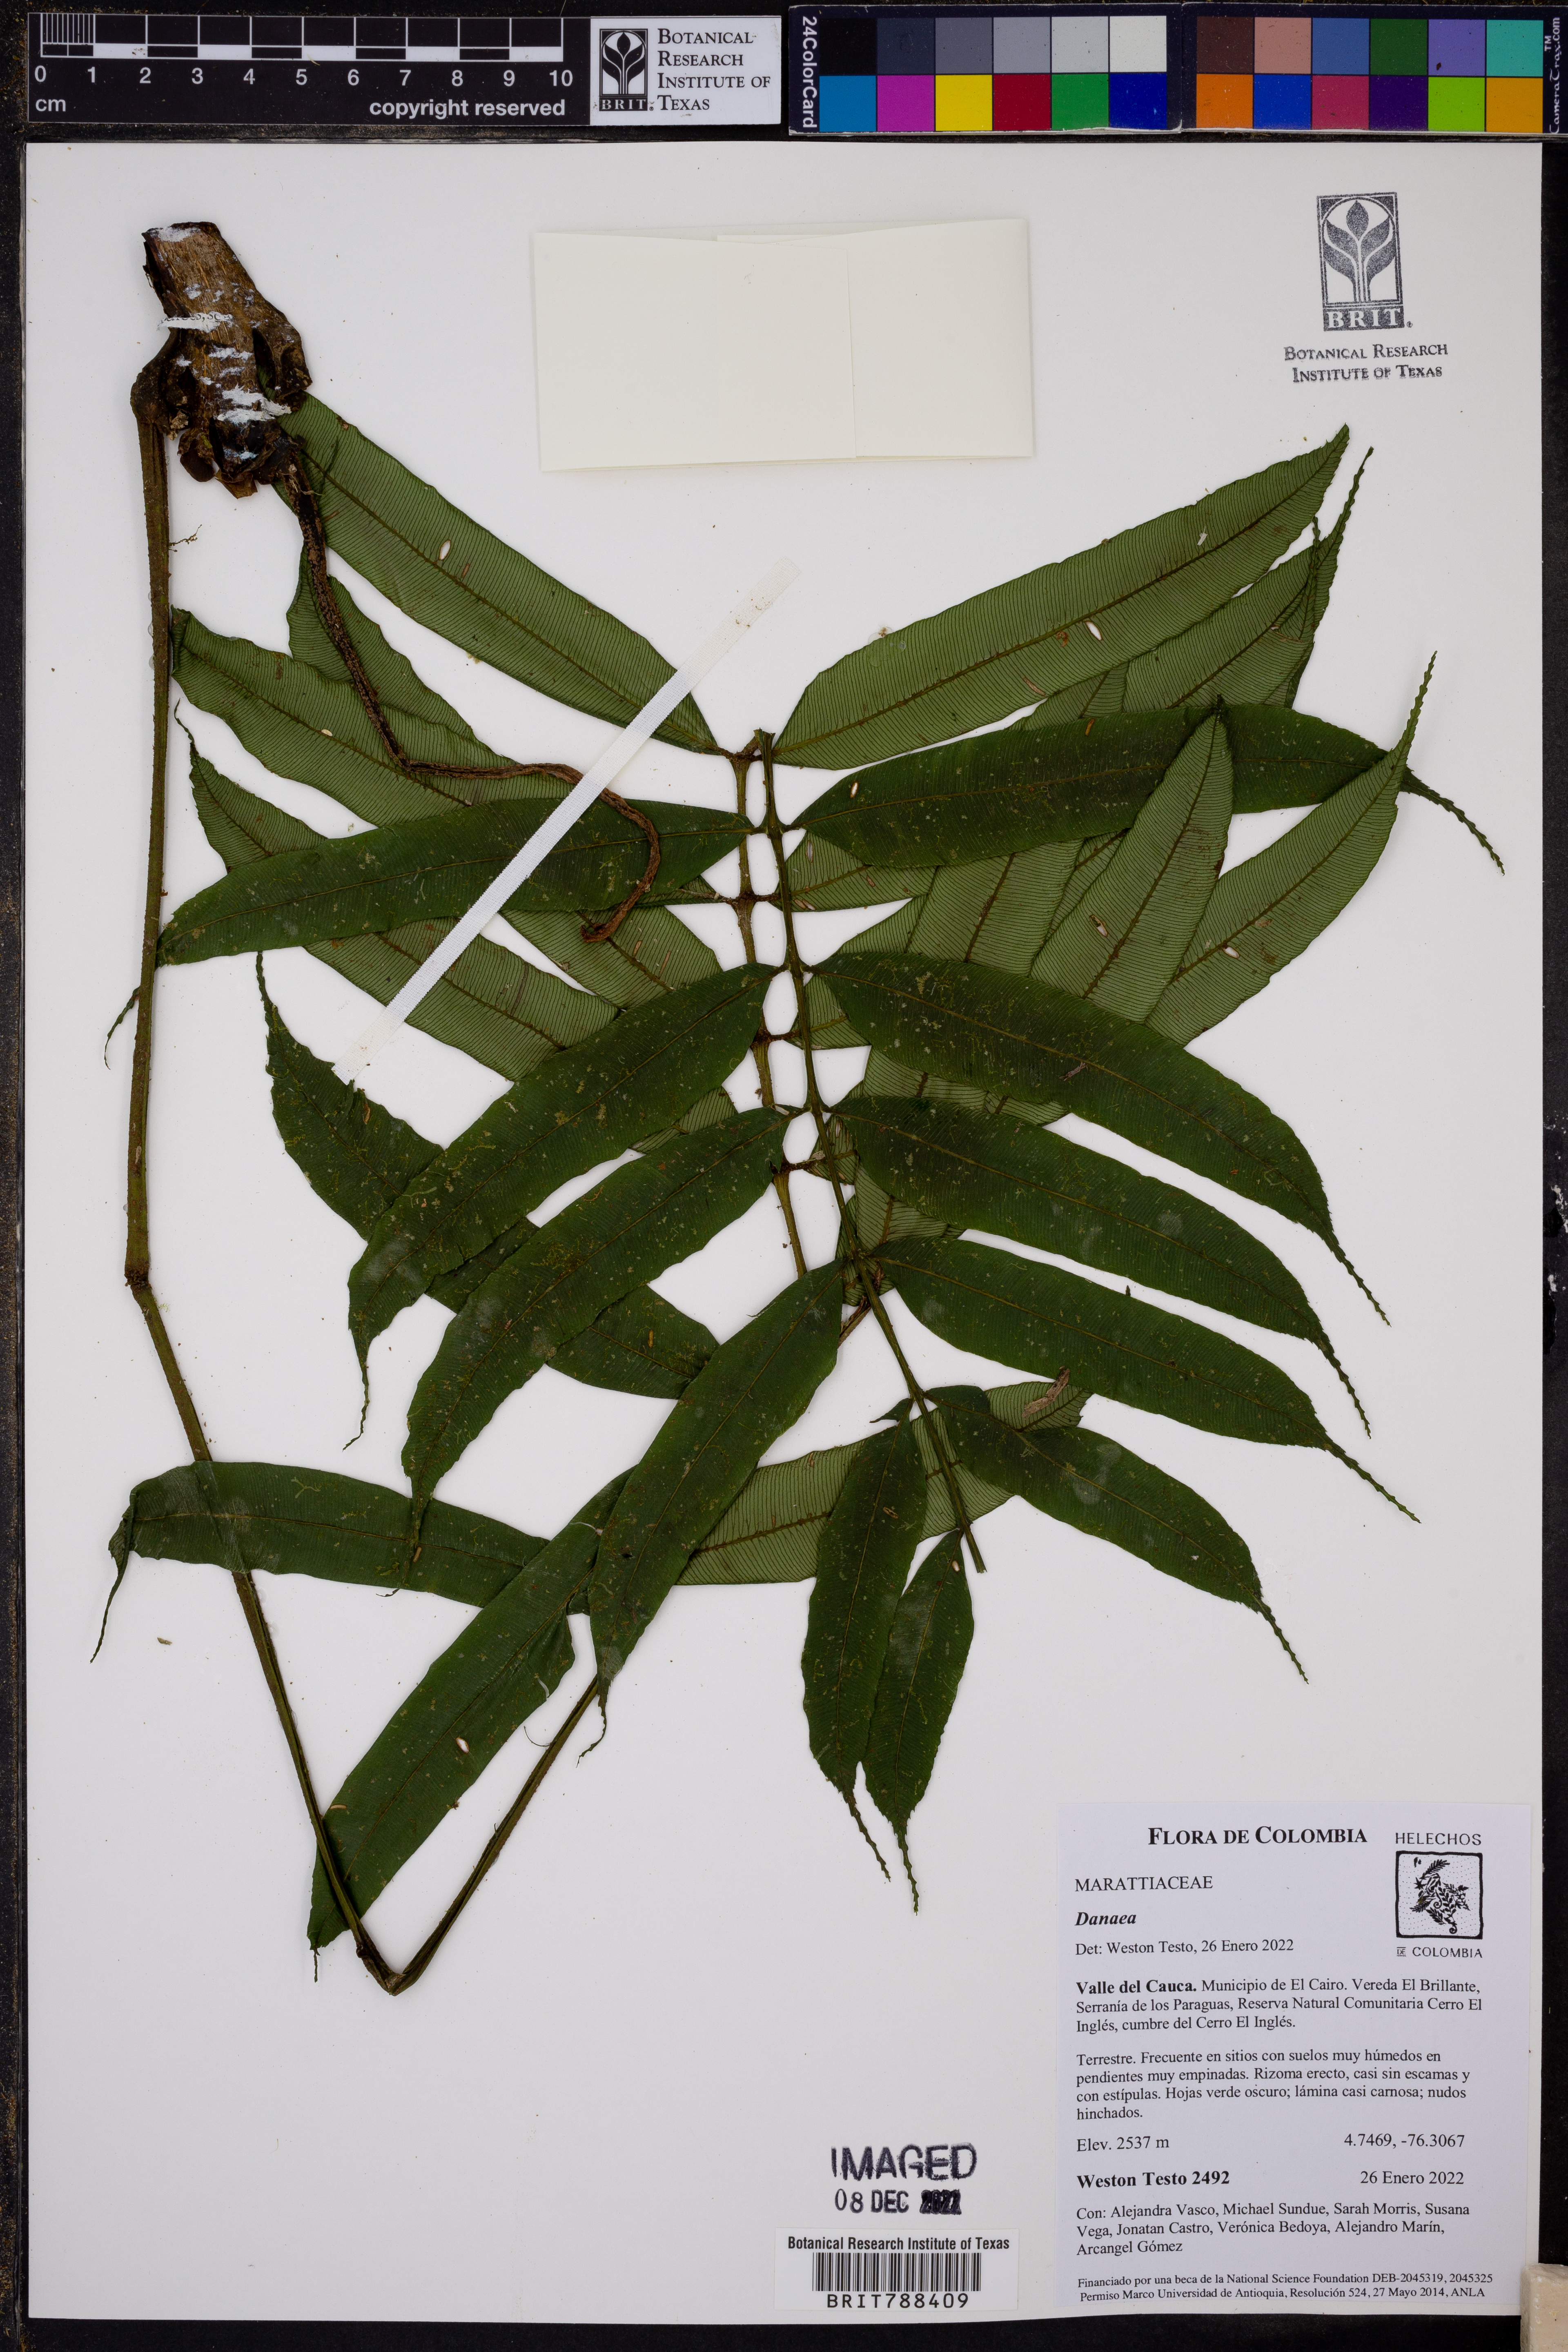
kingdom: Plantae
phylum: Tracheophyta
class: Polypodiopsida
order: Marattiales
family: Marattiaceae
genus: Danaea
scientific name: Danaea
